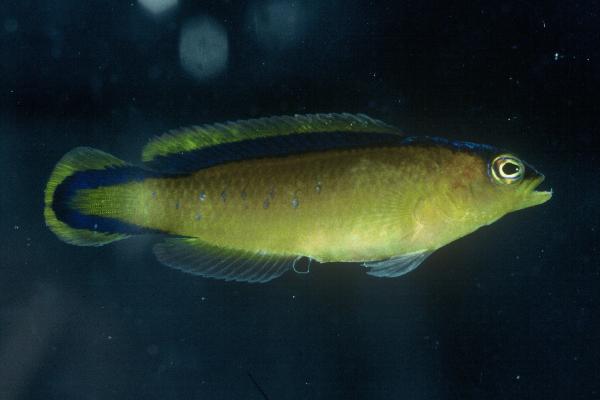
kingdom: Animalia
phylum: Chordata
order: Perciformes
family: Pseudochromidae
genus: Pseudochromis
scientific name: Pseudochromis tapeinosoma
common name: Horseshoe-tailed dottyback
